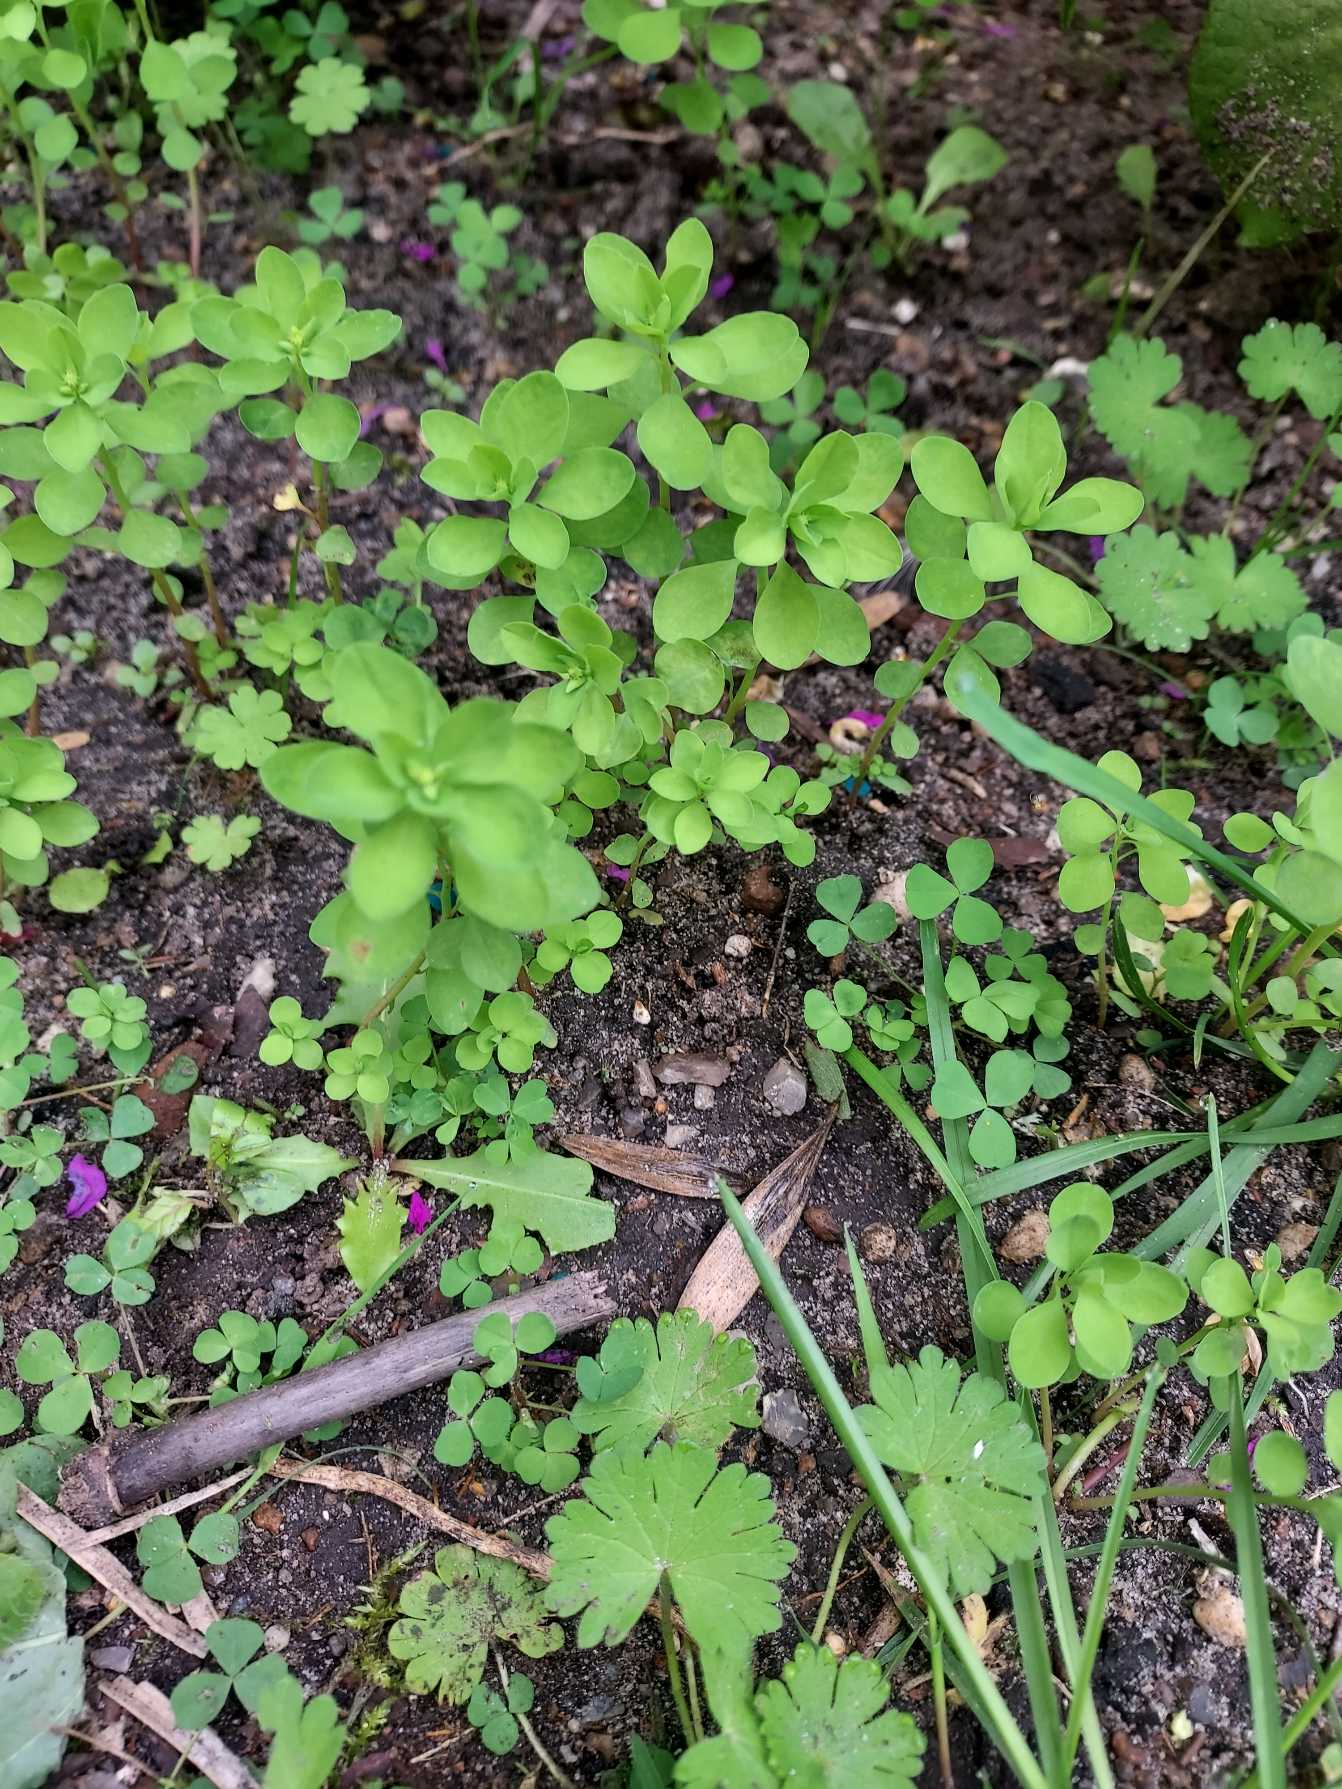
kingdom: Plantae
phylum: Tracheophyta
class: Magnoliopsida
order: Malpighiales
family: Euphorbiaceae
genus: Euphorbia
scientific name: Euphorbia peplus
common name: Gaffel-vortemælk
